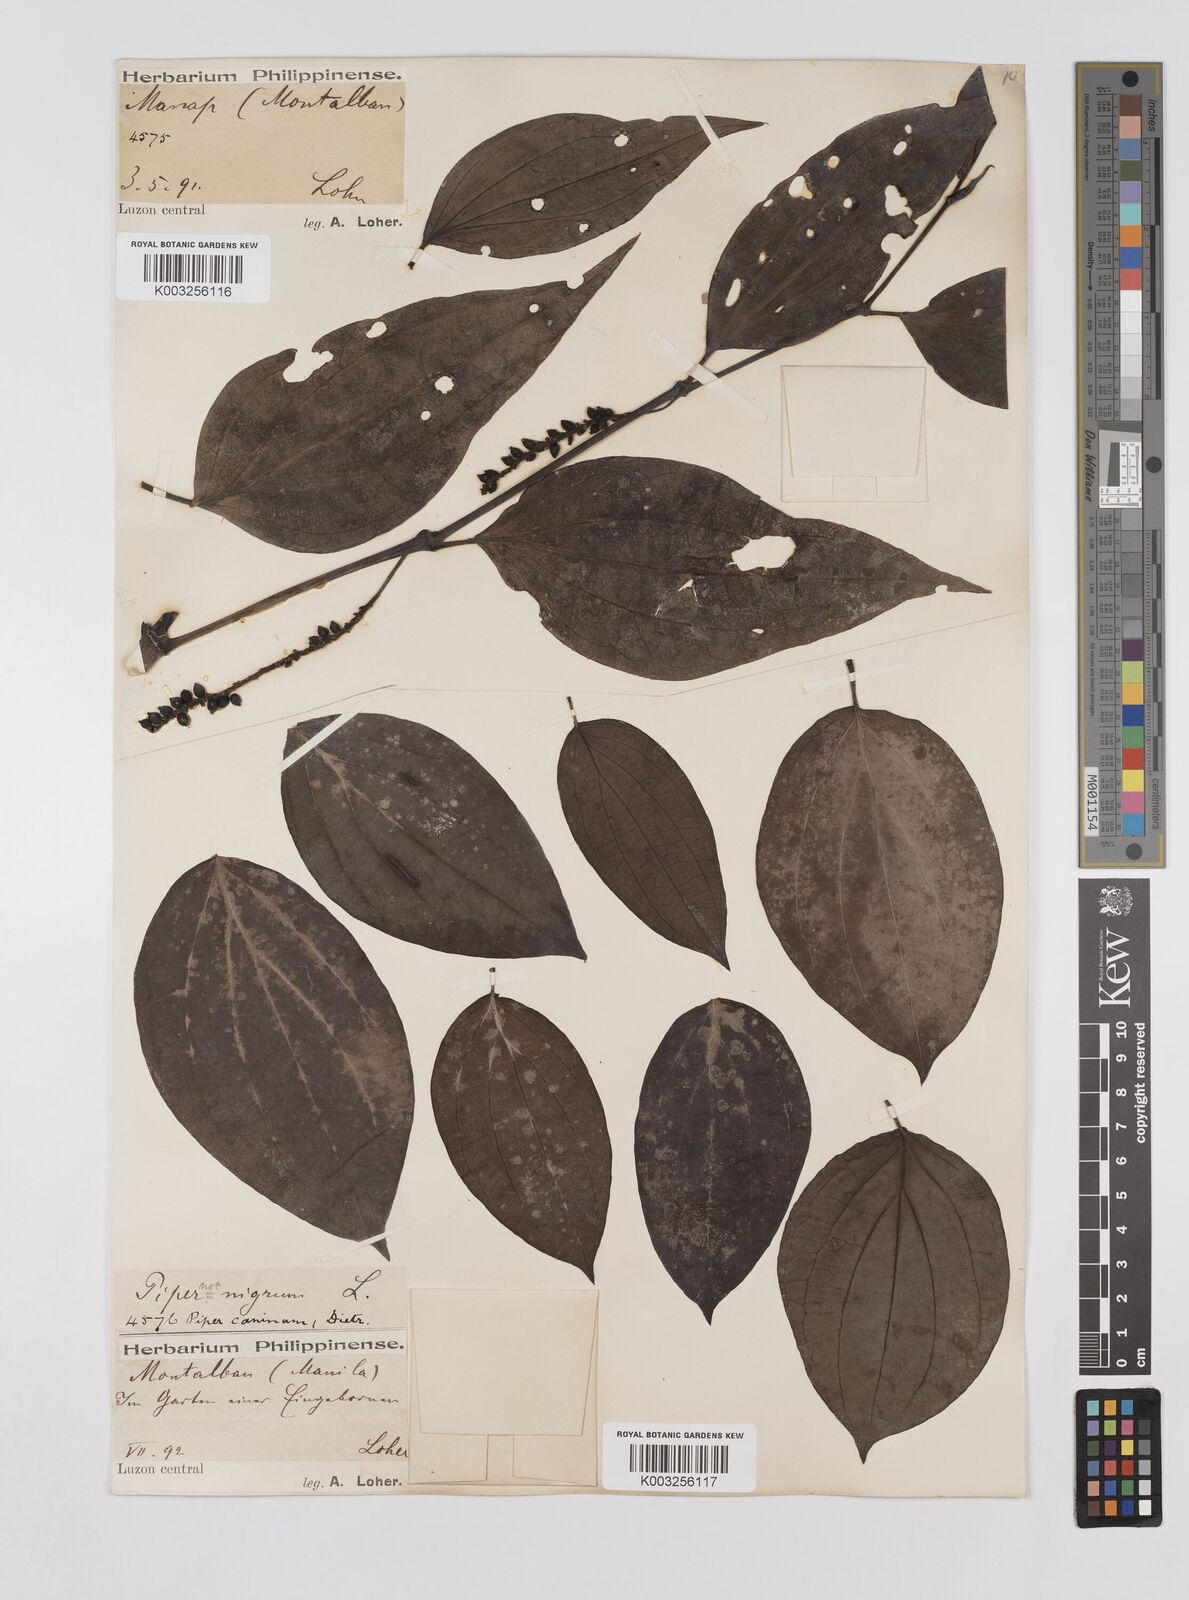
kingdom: Plantae
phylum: Tracheophyta
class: Magnoliopsida
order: Piperales
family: Piperaceae
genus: Piper
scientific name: Piper lanatum
